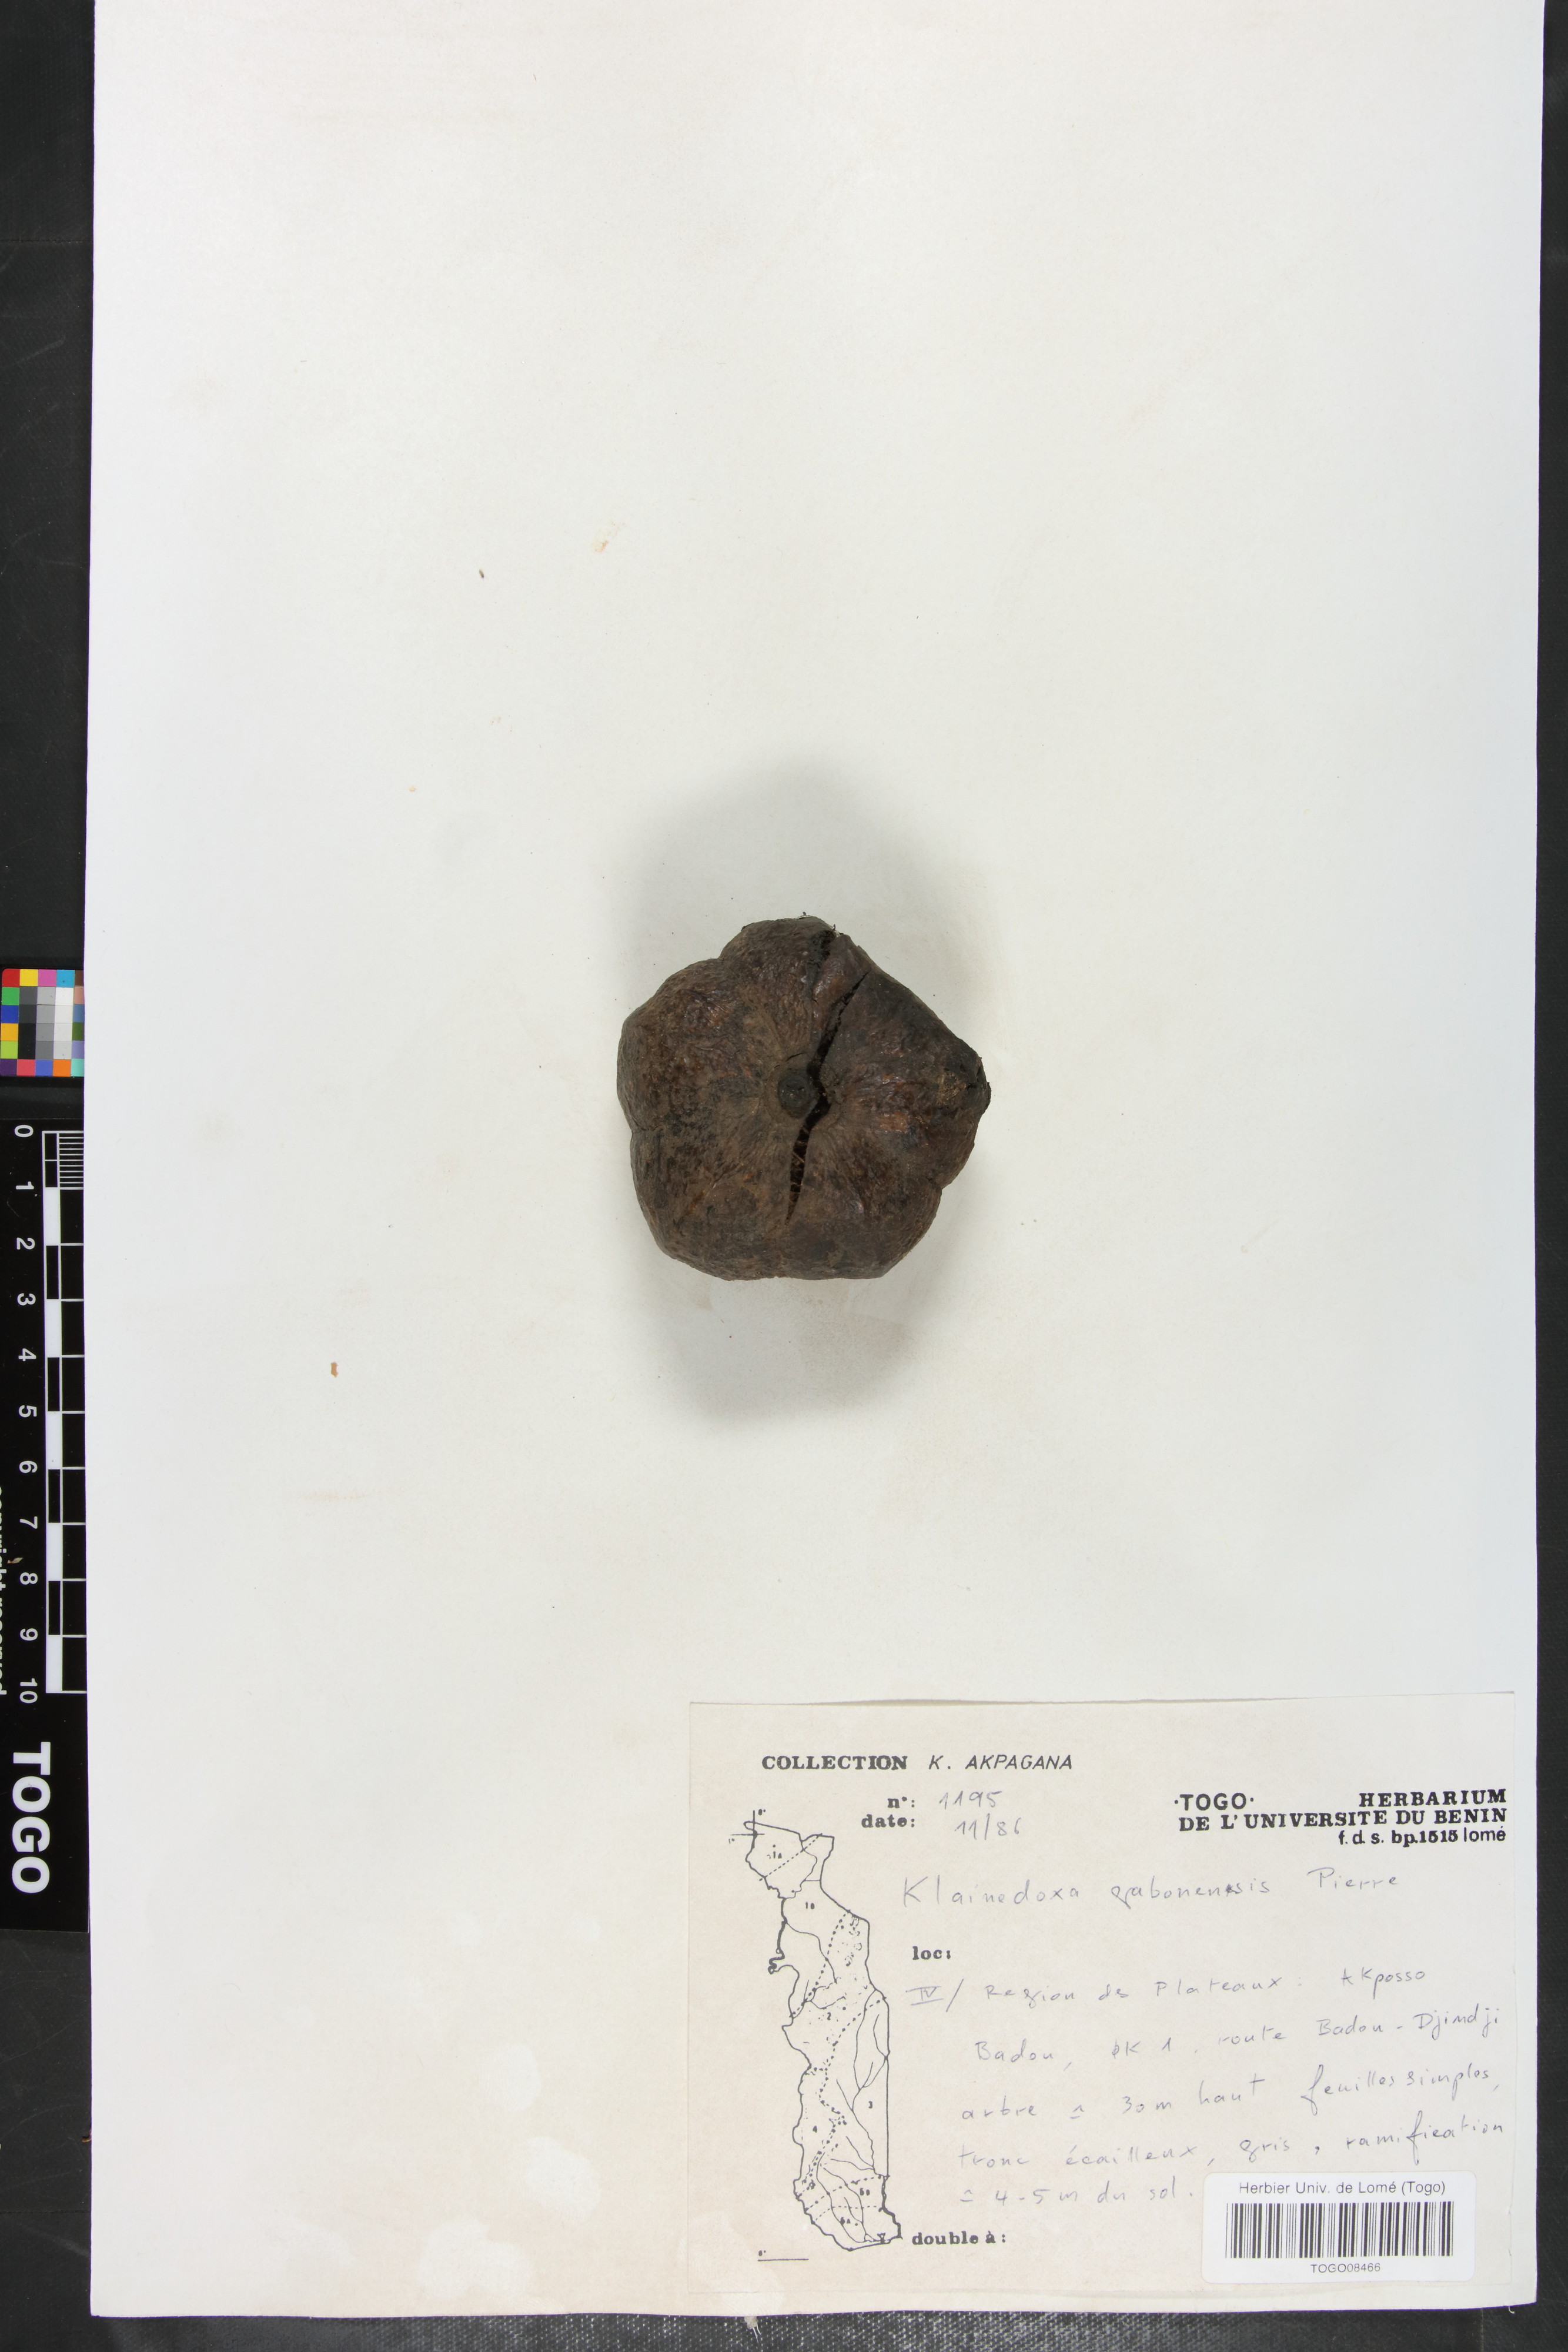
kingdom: Plantae
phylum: Tracheophyta
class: Magnoliopsida
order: Malpighiales
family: Irvingiaceae
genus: Klainedoxa
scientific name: Klainedoxa gabonensis
